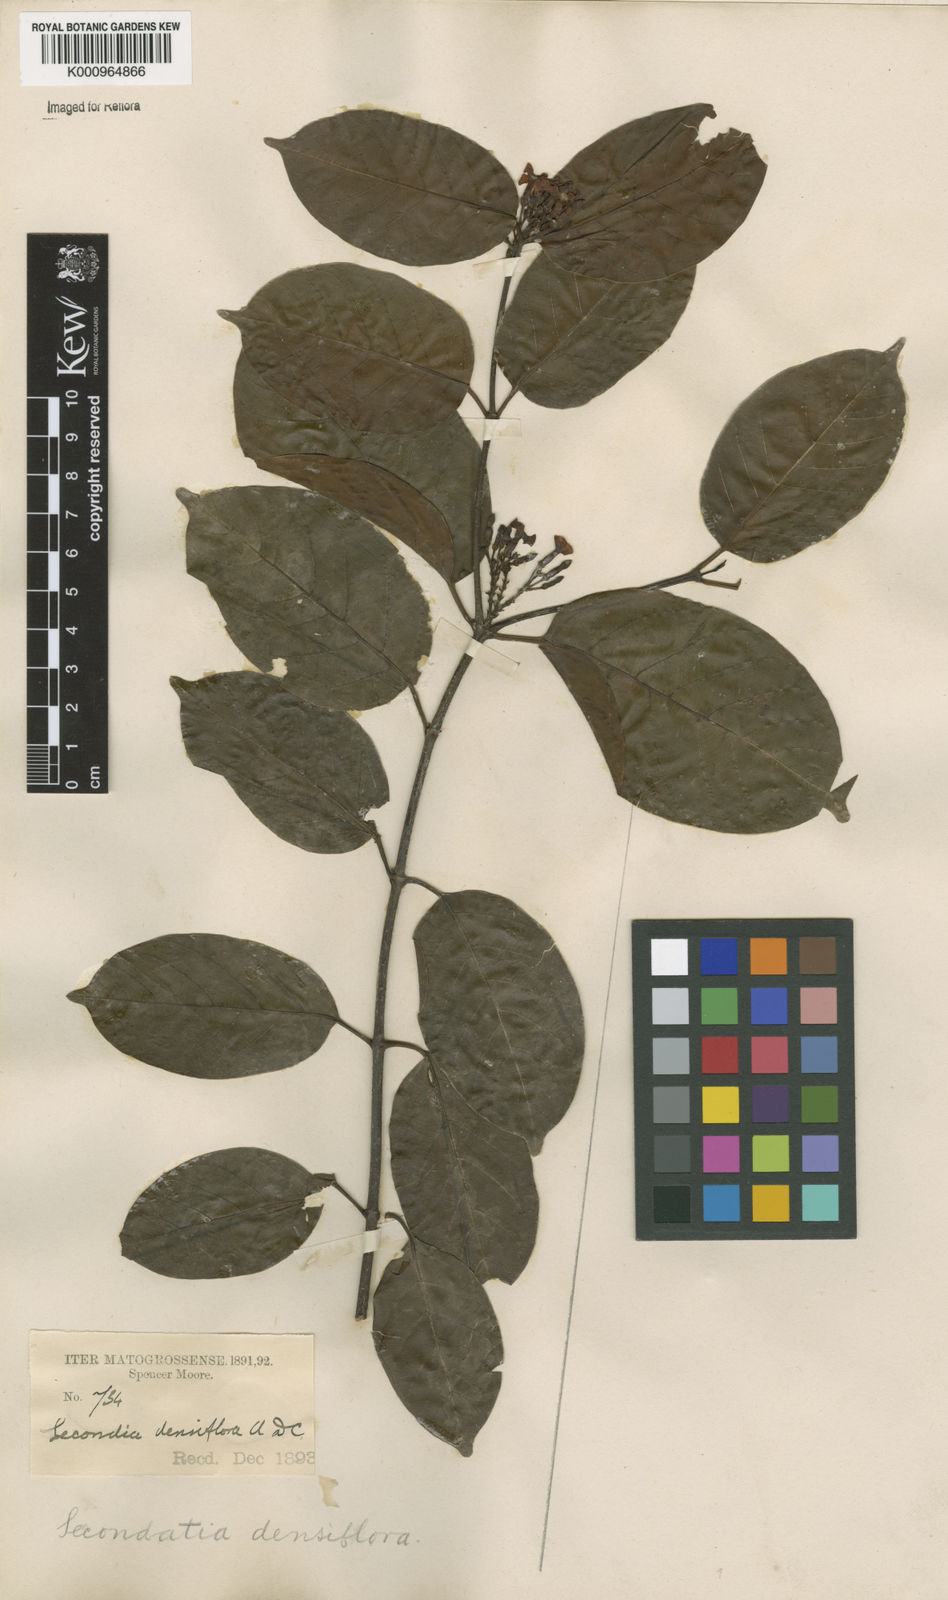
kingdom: Plantae
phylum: Tracheophyta
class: Magnoliopsida
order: Gentianales
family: Apocynaceae
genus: Secondatia
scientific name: Secondatia densiflora
